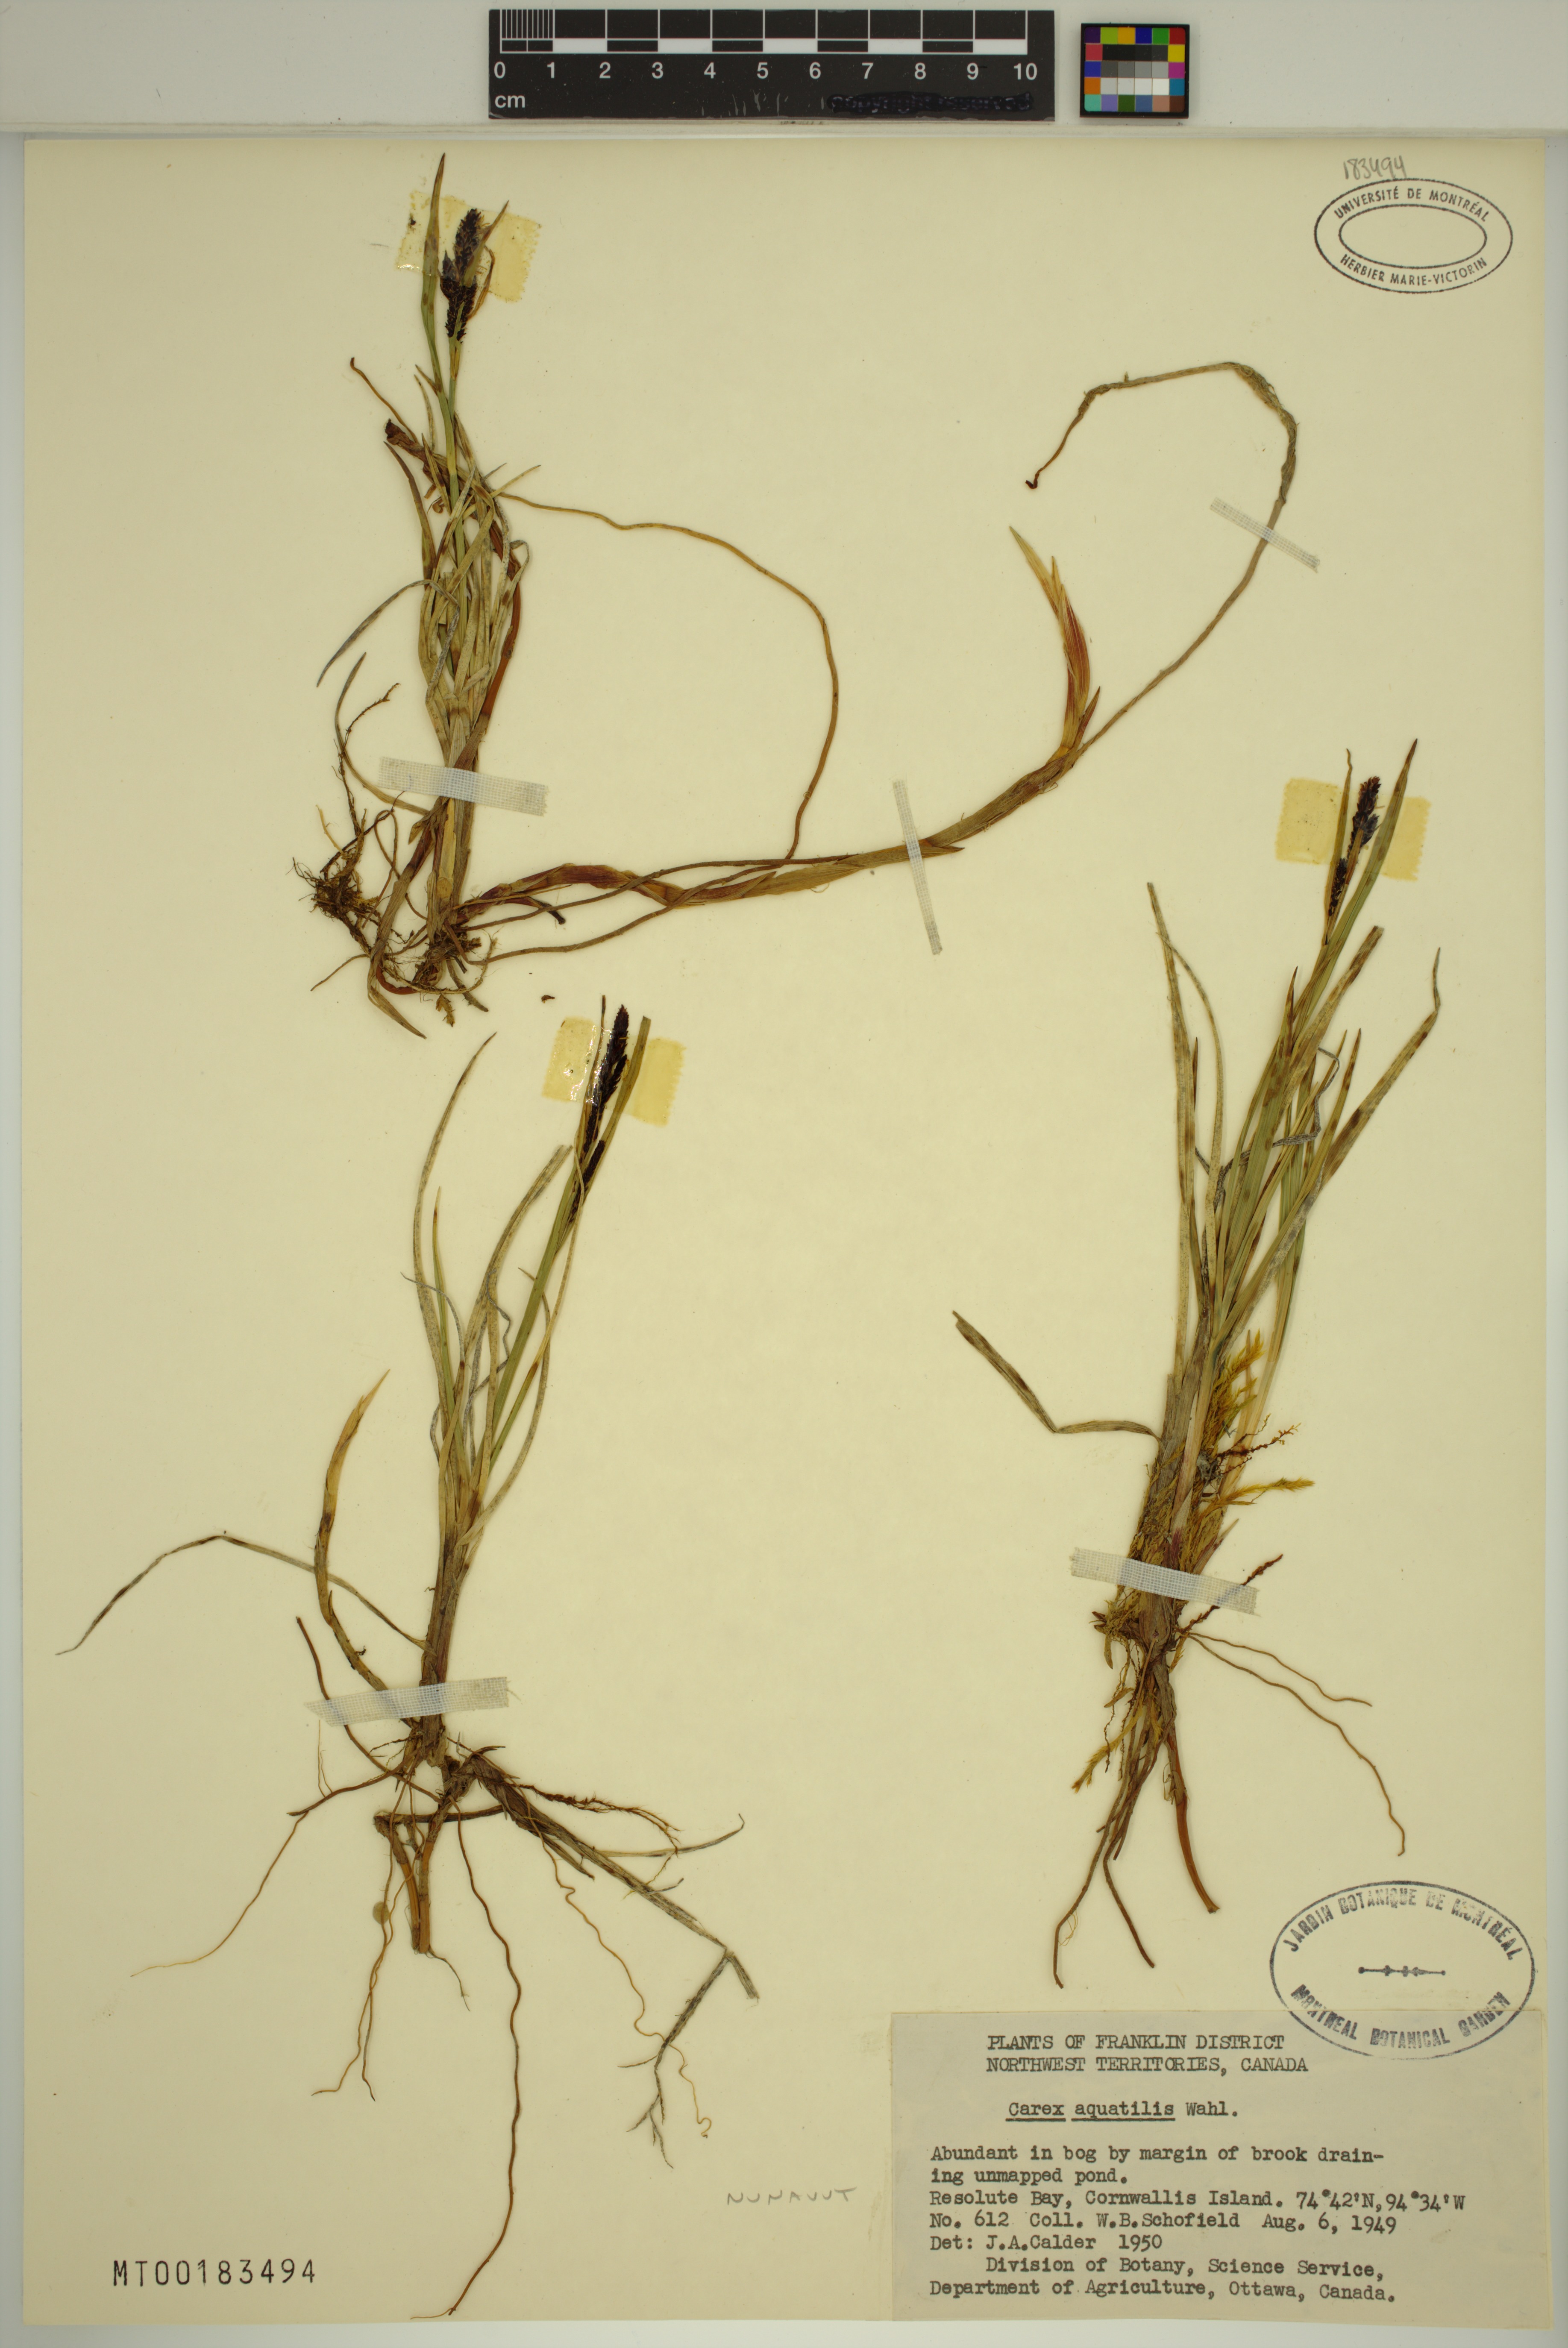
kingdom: Plantae
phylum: Tracheophyta
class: Liliopsida
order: Poales
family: Cyperaceae
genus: Carex
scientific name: Carex aquatilis
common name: Water sedge
